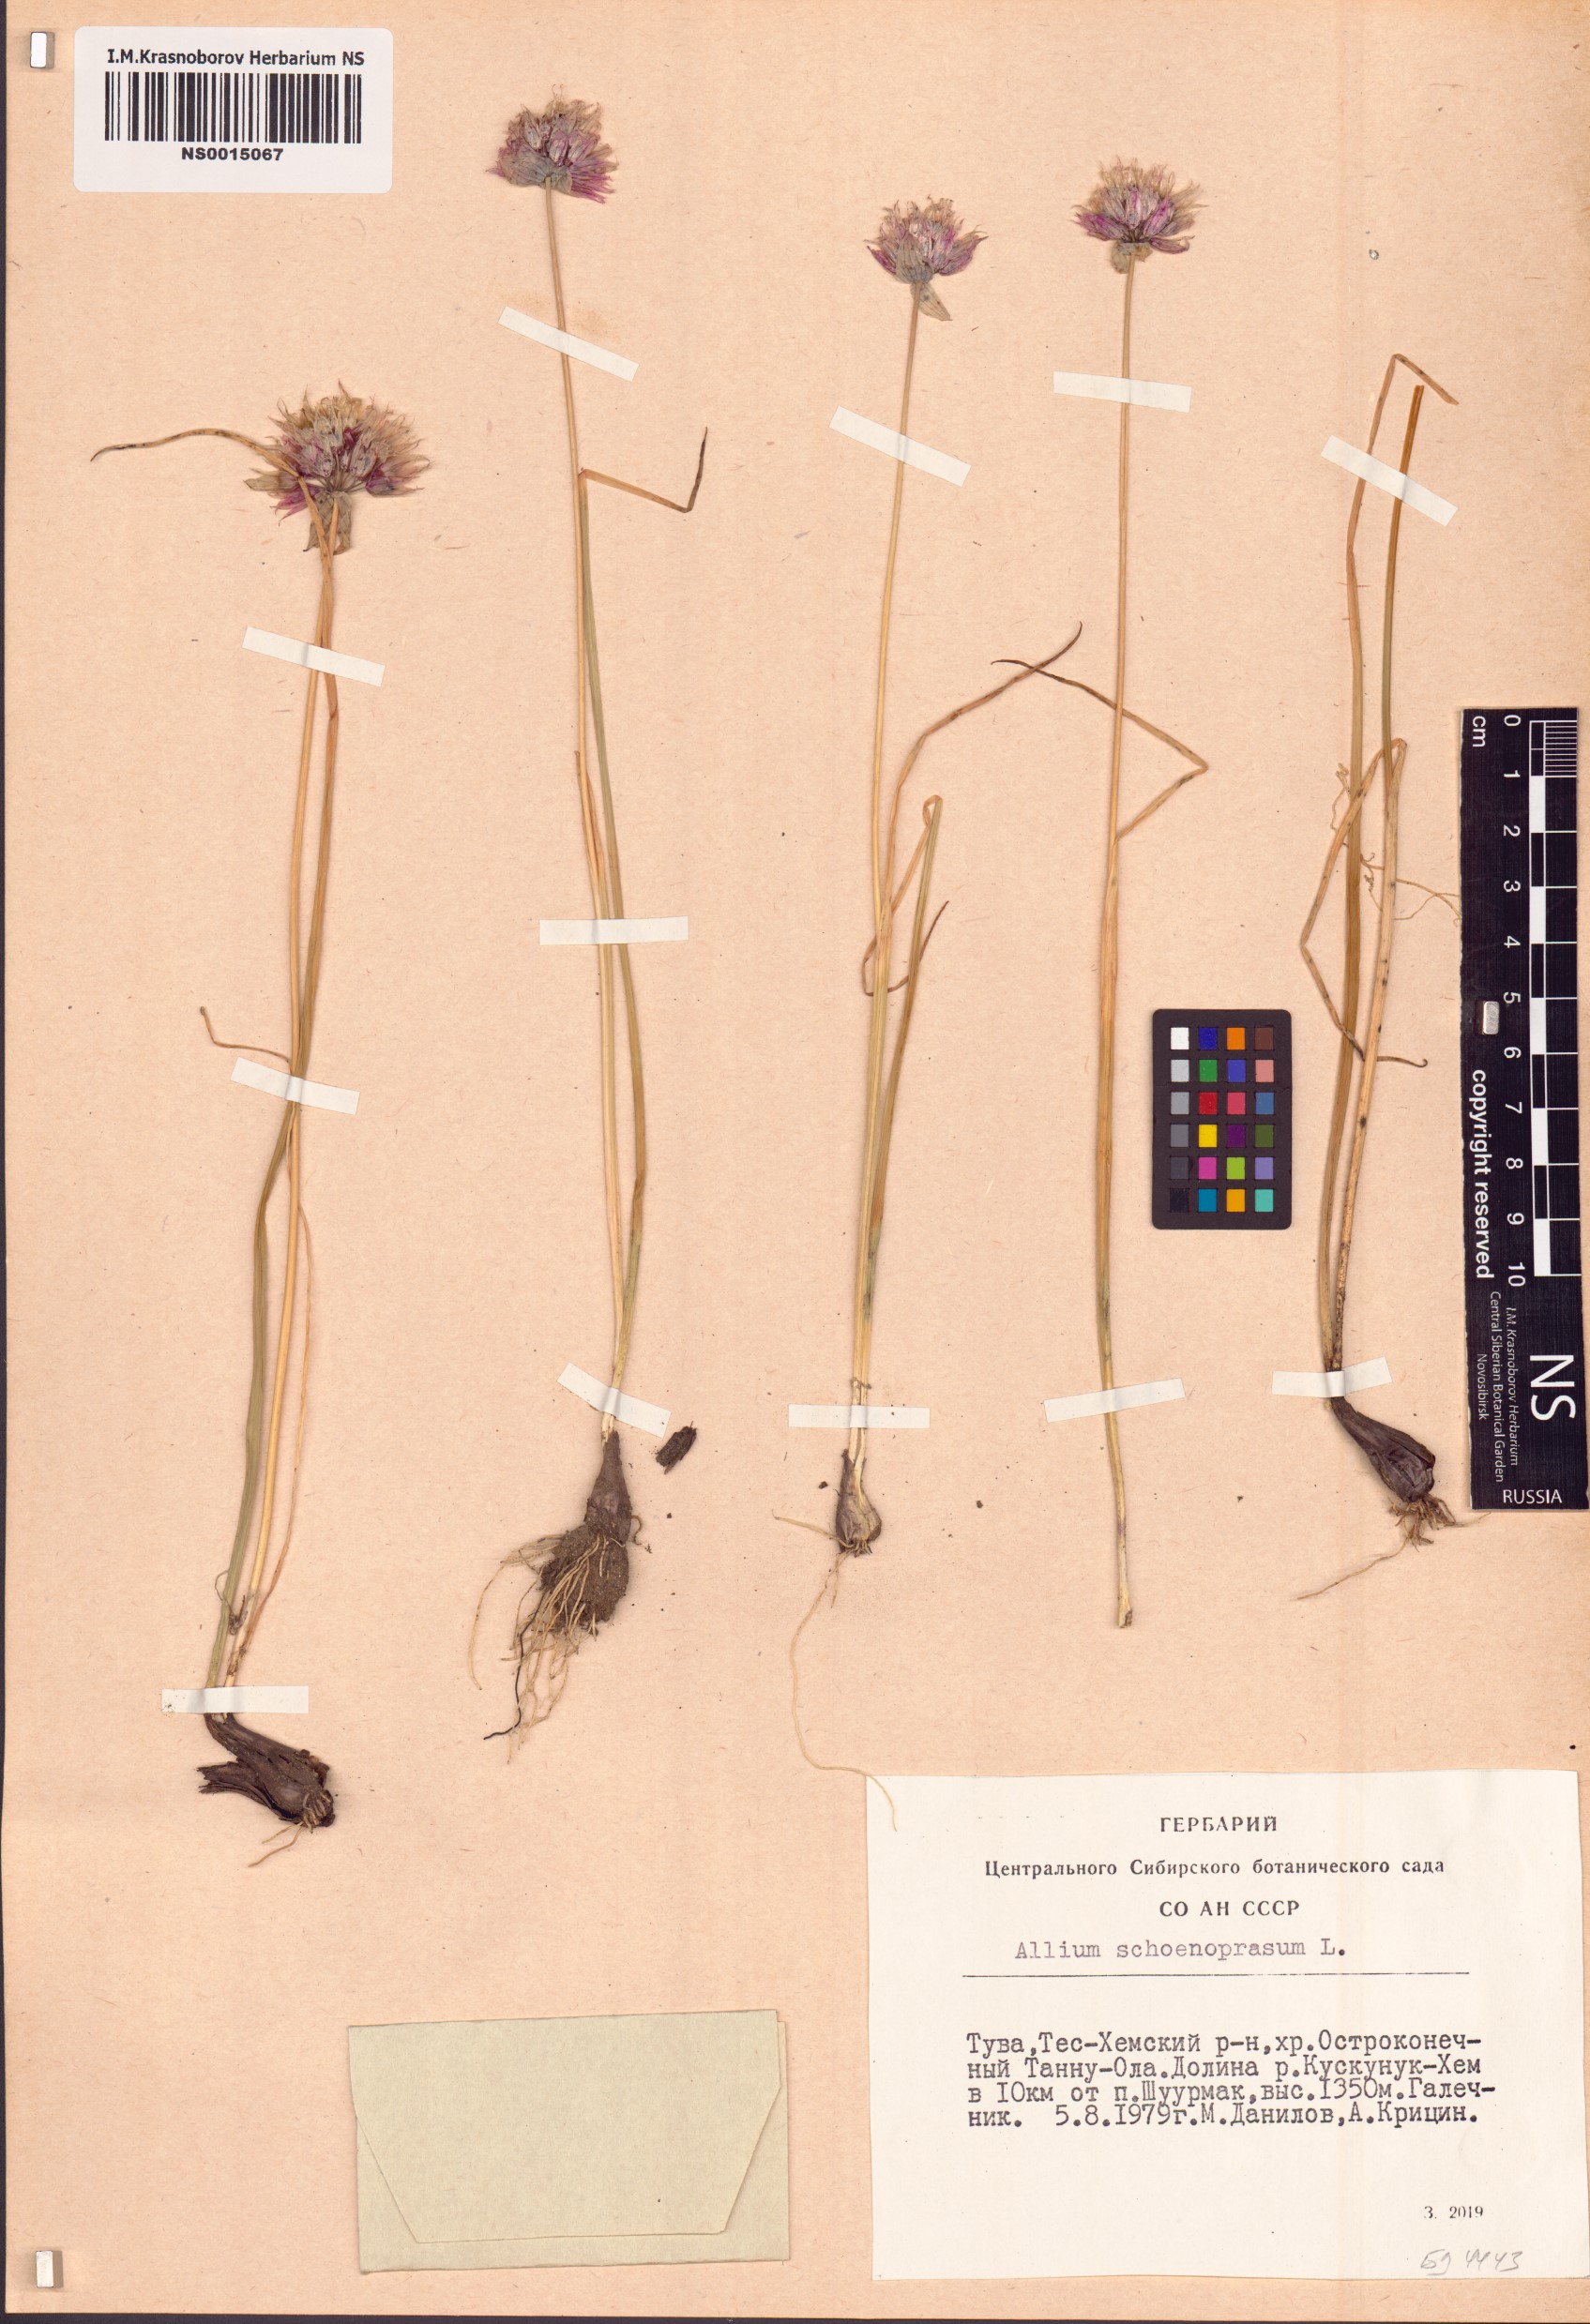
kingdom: Plantae
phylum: Tracheophyta
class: Liliopsida
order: Asparagales
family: Amaryllidaceae
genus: Allium
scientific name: Allium schoenoprasum
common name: Chives
